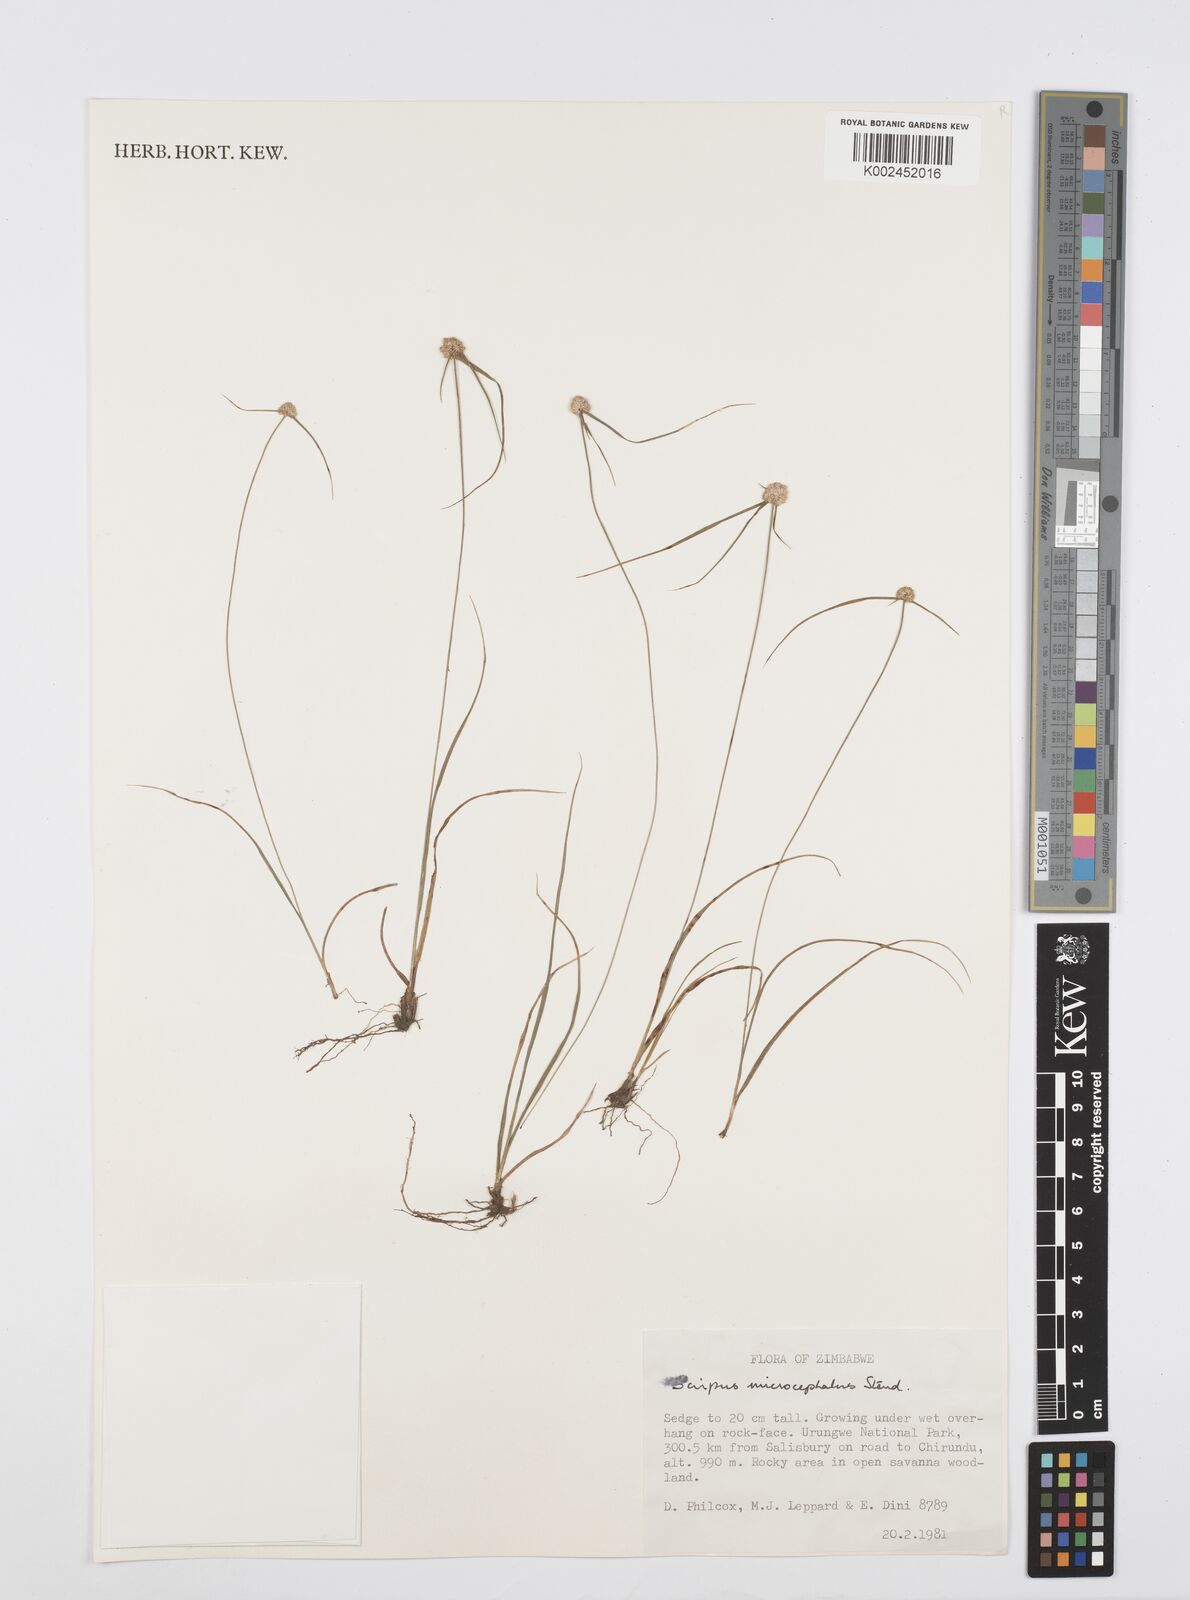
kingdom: Plantae
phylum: Tracheophyta
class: Liliopsida
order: Poales
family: Cyperaceae
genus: Cyperus
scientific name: Cyperus conglobatus
